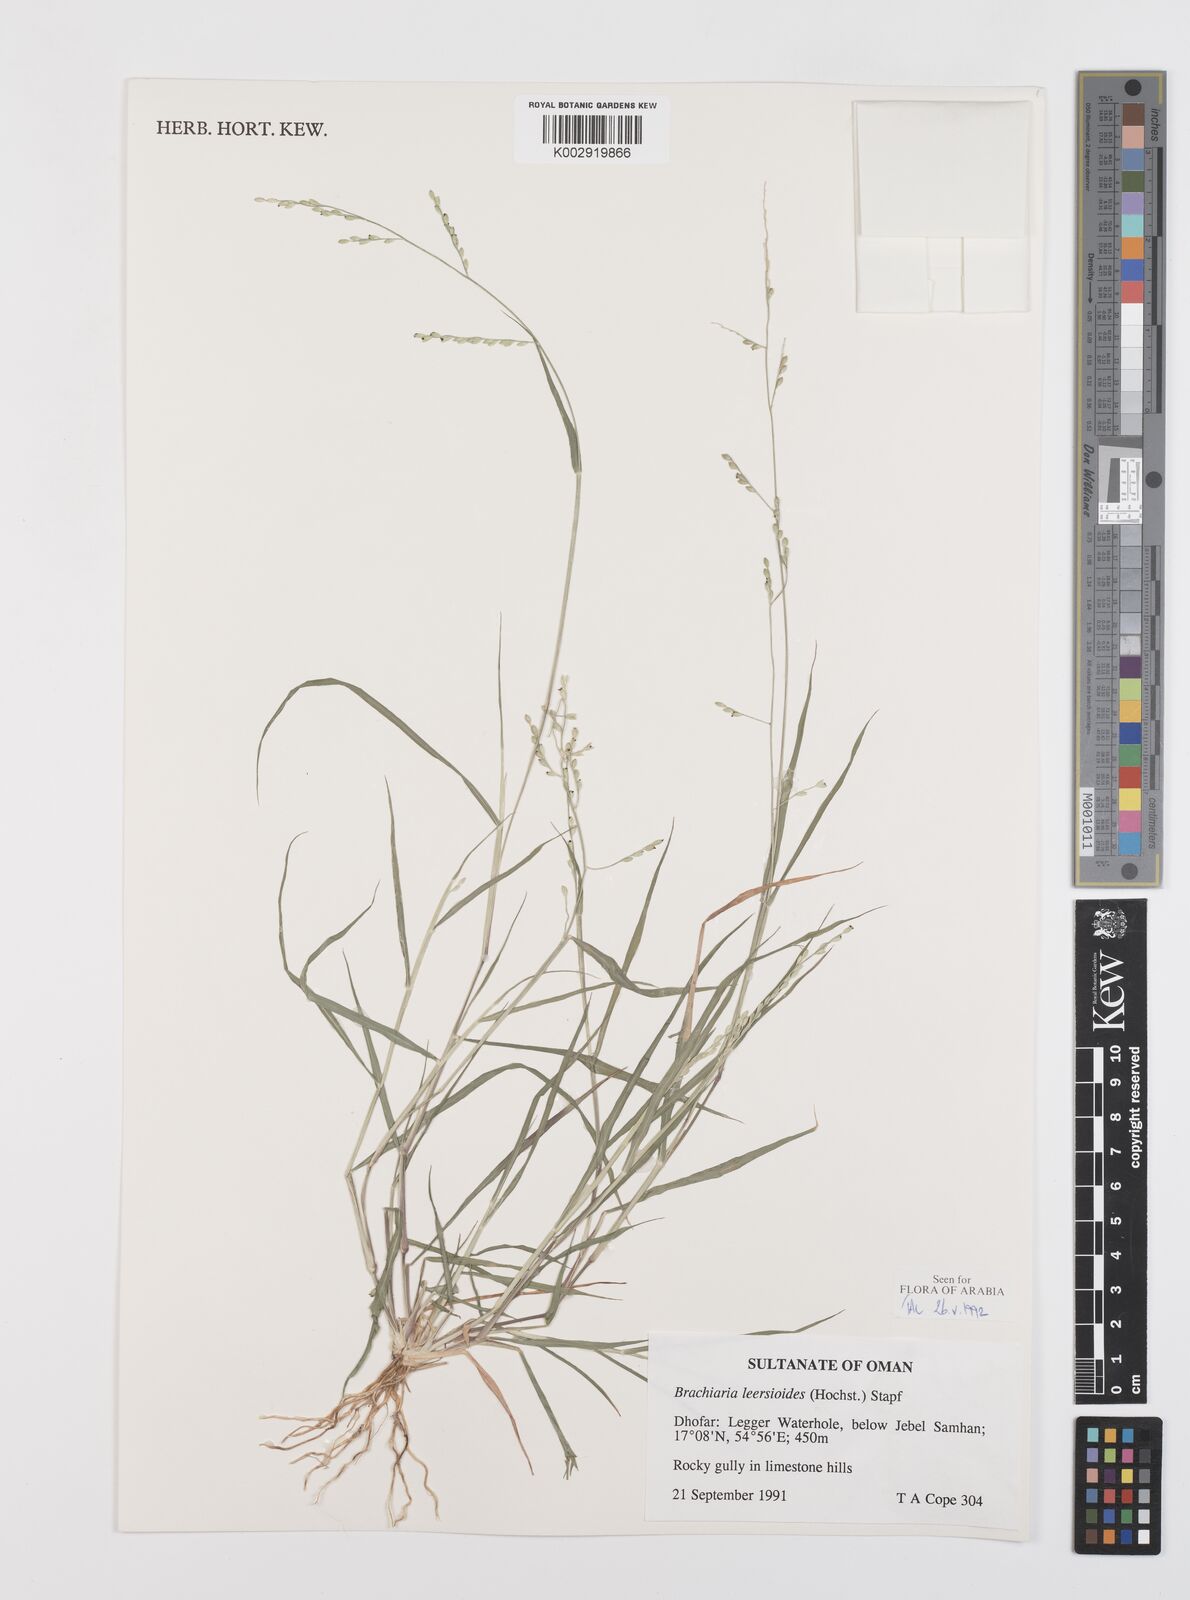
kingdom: Plantae
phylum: Tracheophyta
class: Liliopsida
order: Poales
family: Poaceae
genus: Urochloa
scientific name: Urochloa leersioides
